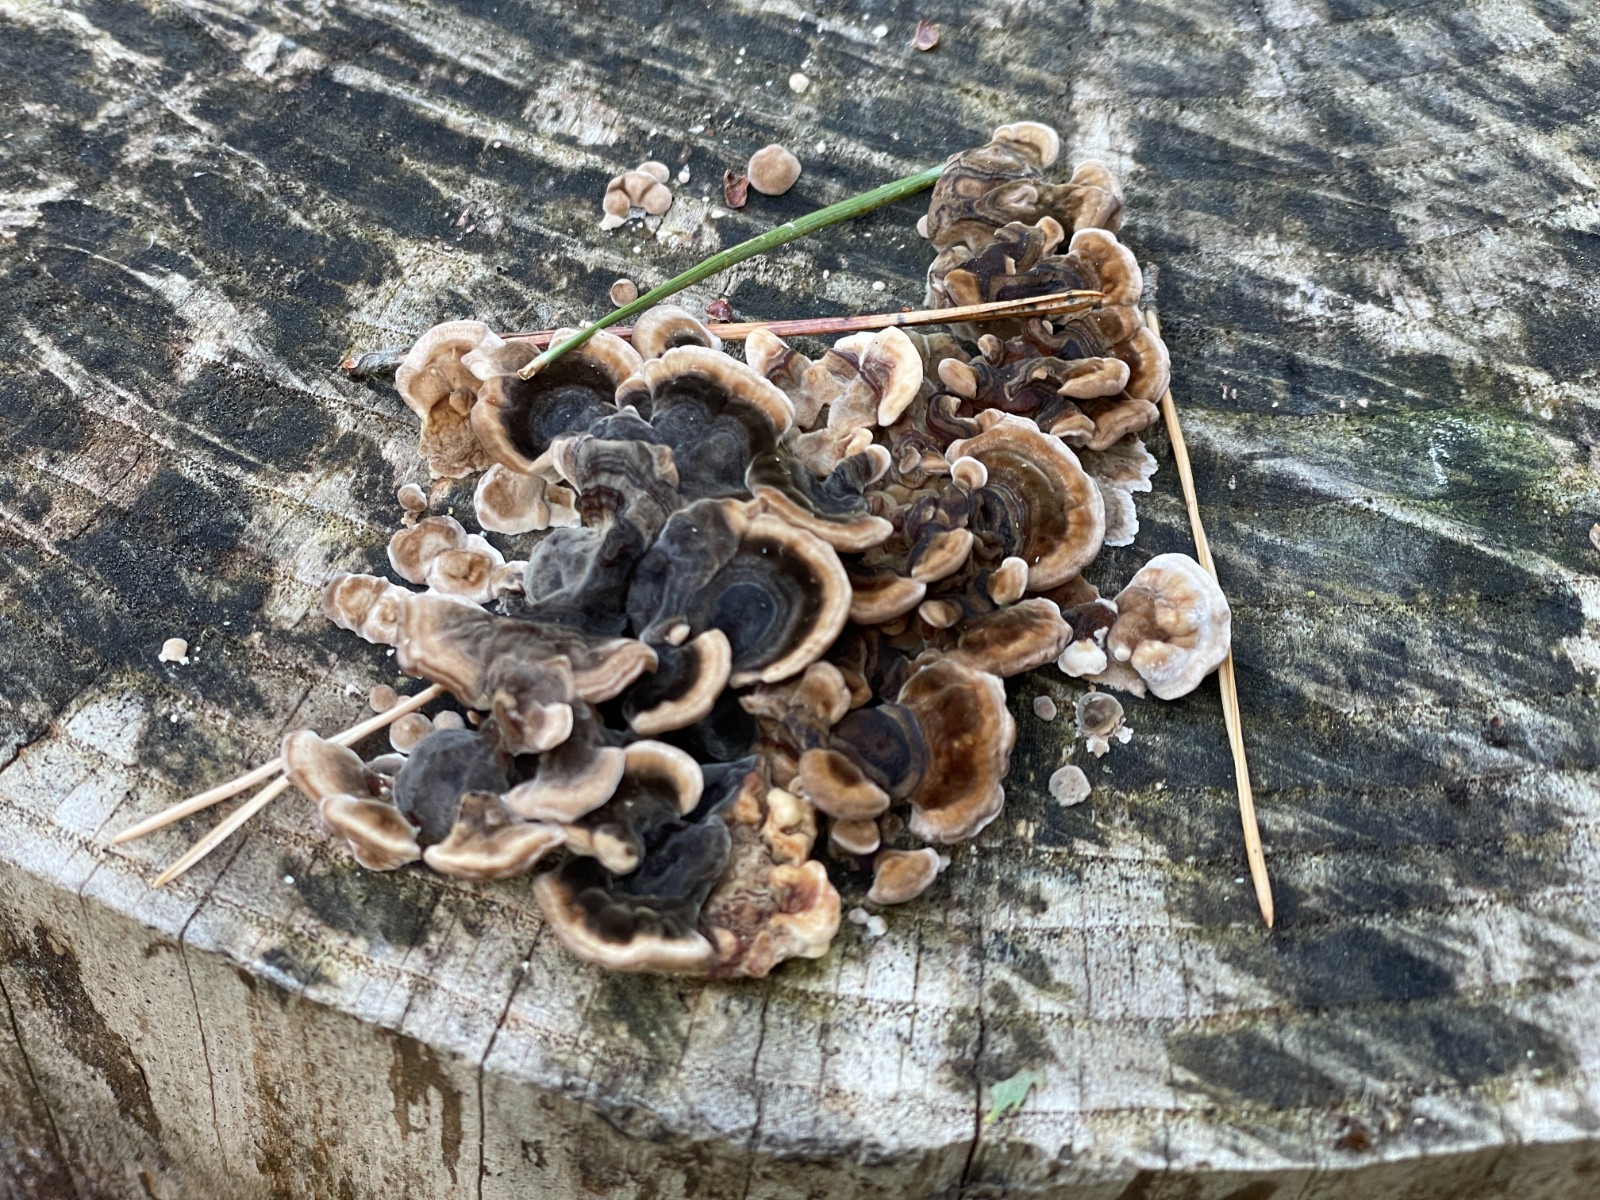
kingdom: Fungi
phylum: Basidiomycota
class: Agaricomycetes
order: Polyporales
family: Polyporaceae
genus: Trametes
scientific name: Trametes versicolor
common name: broget læderporesvamp
